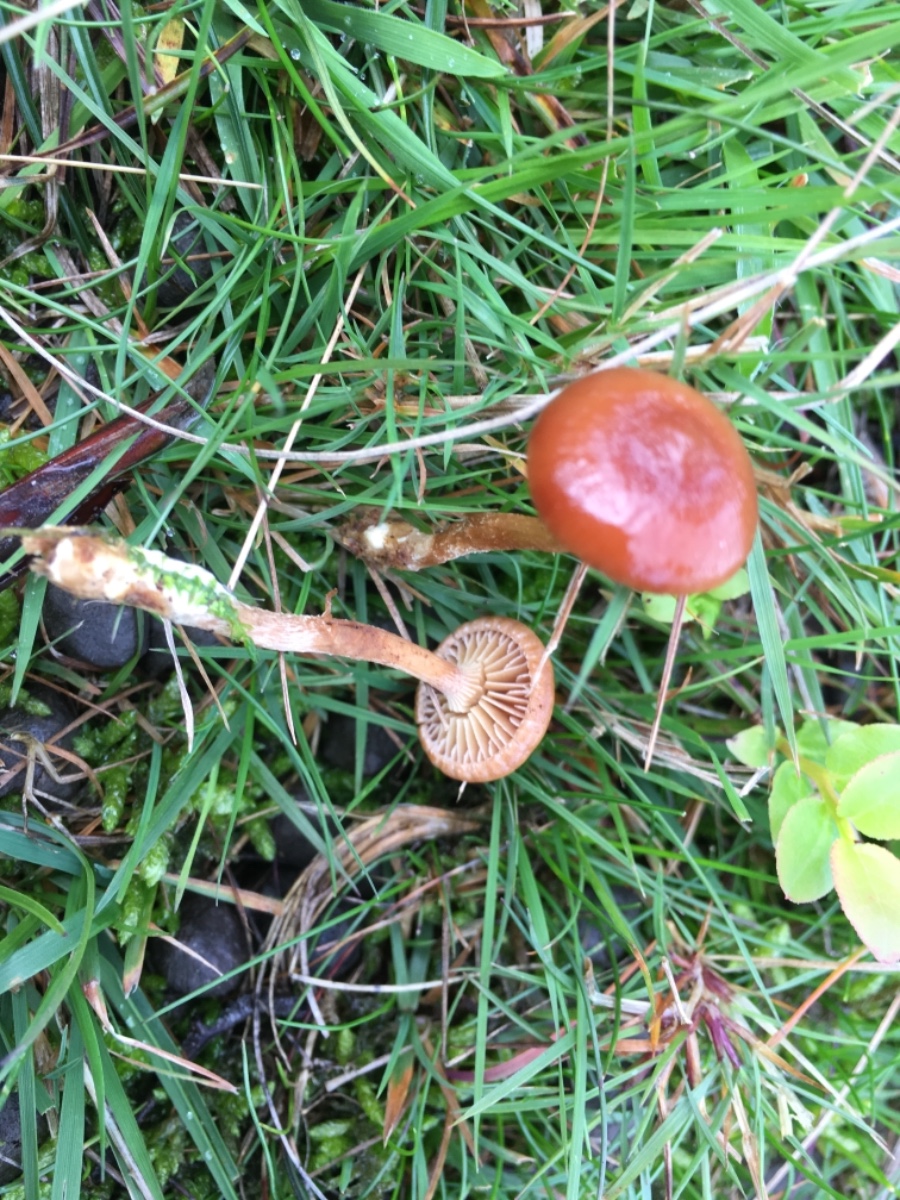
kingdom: Fungi
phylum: Basidiomycota
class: Agaricomycetes
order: Agaricales
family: Strophariaceae
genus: Hypholoma
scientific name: Hypholoma
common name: svovlhat
